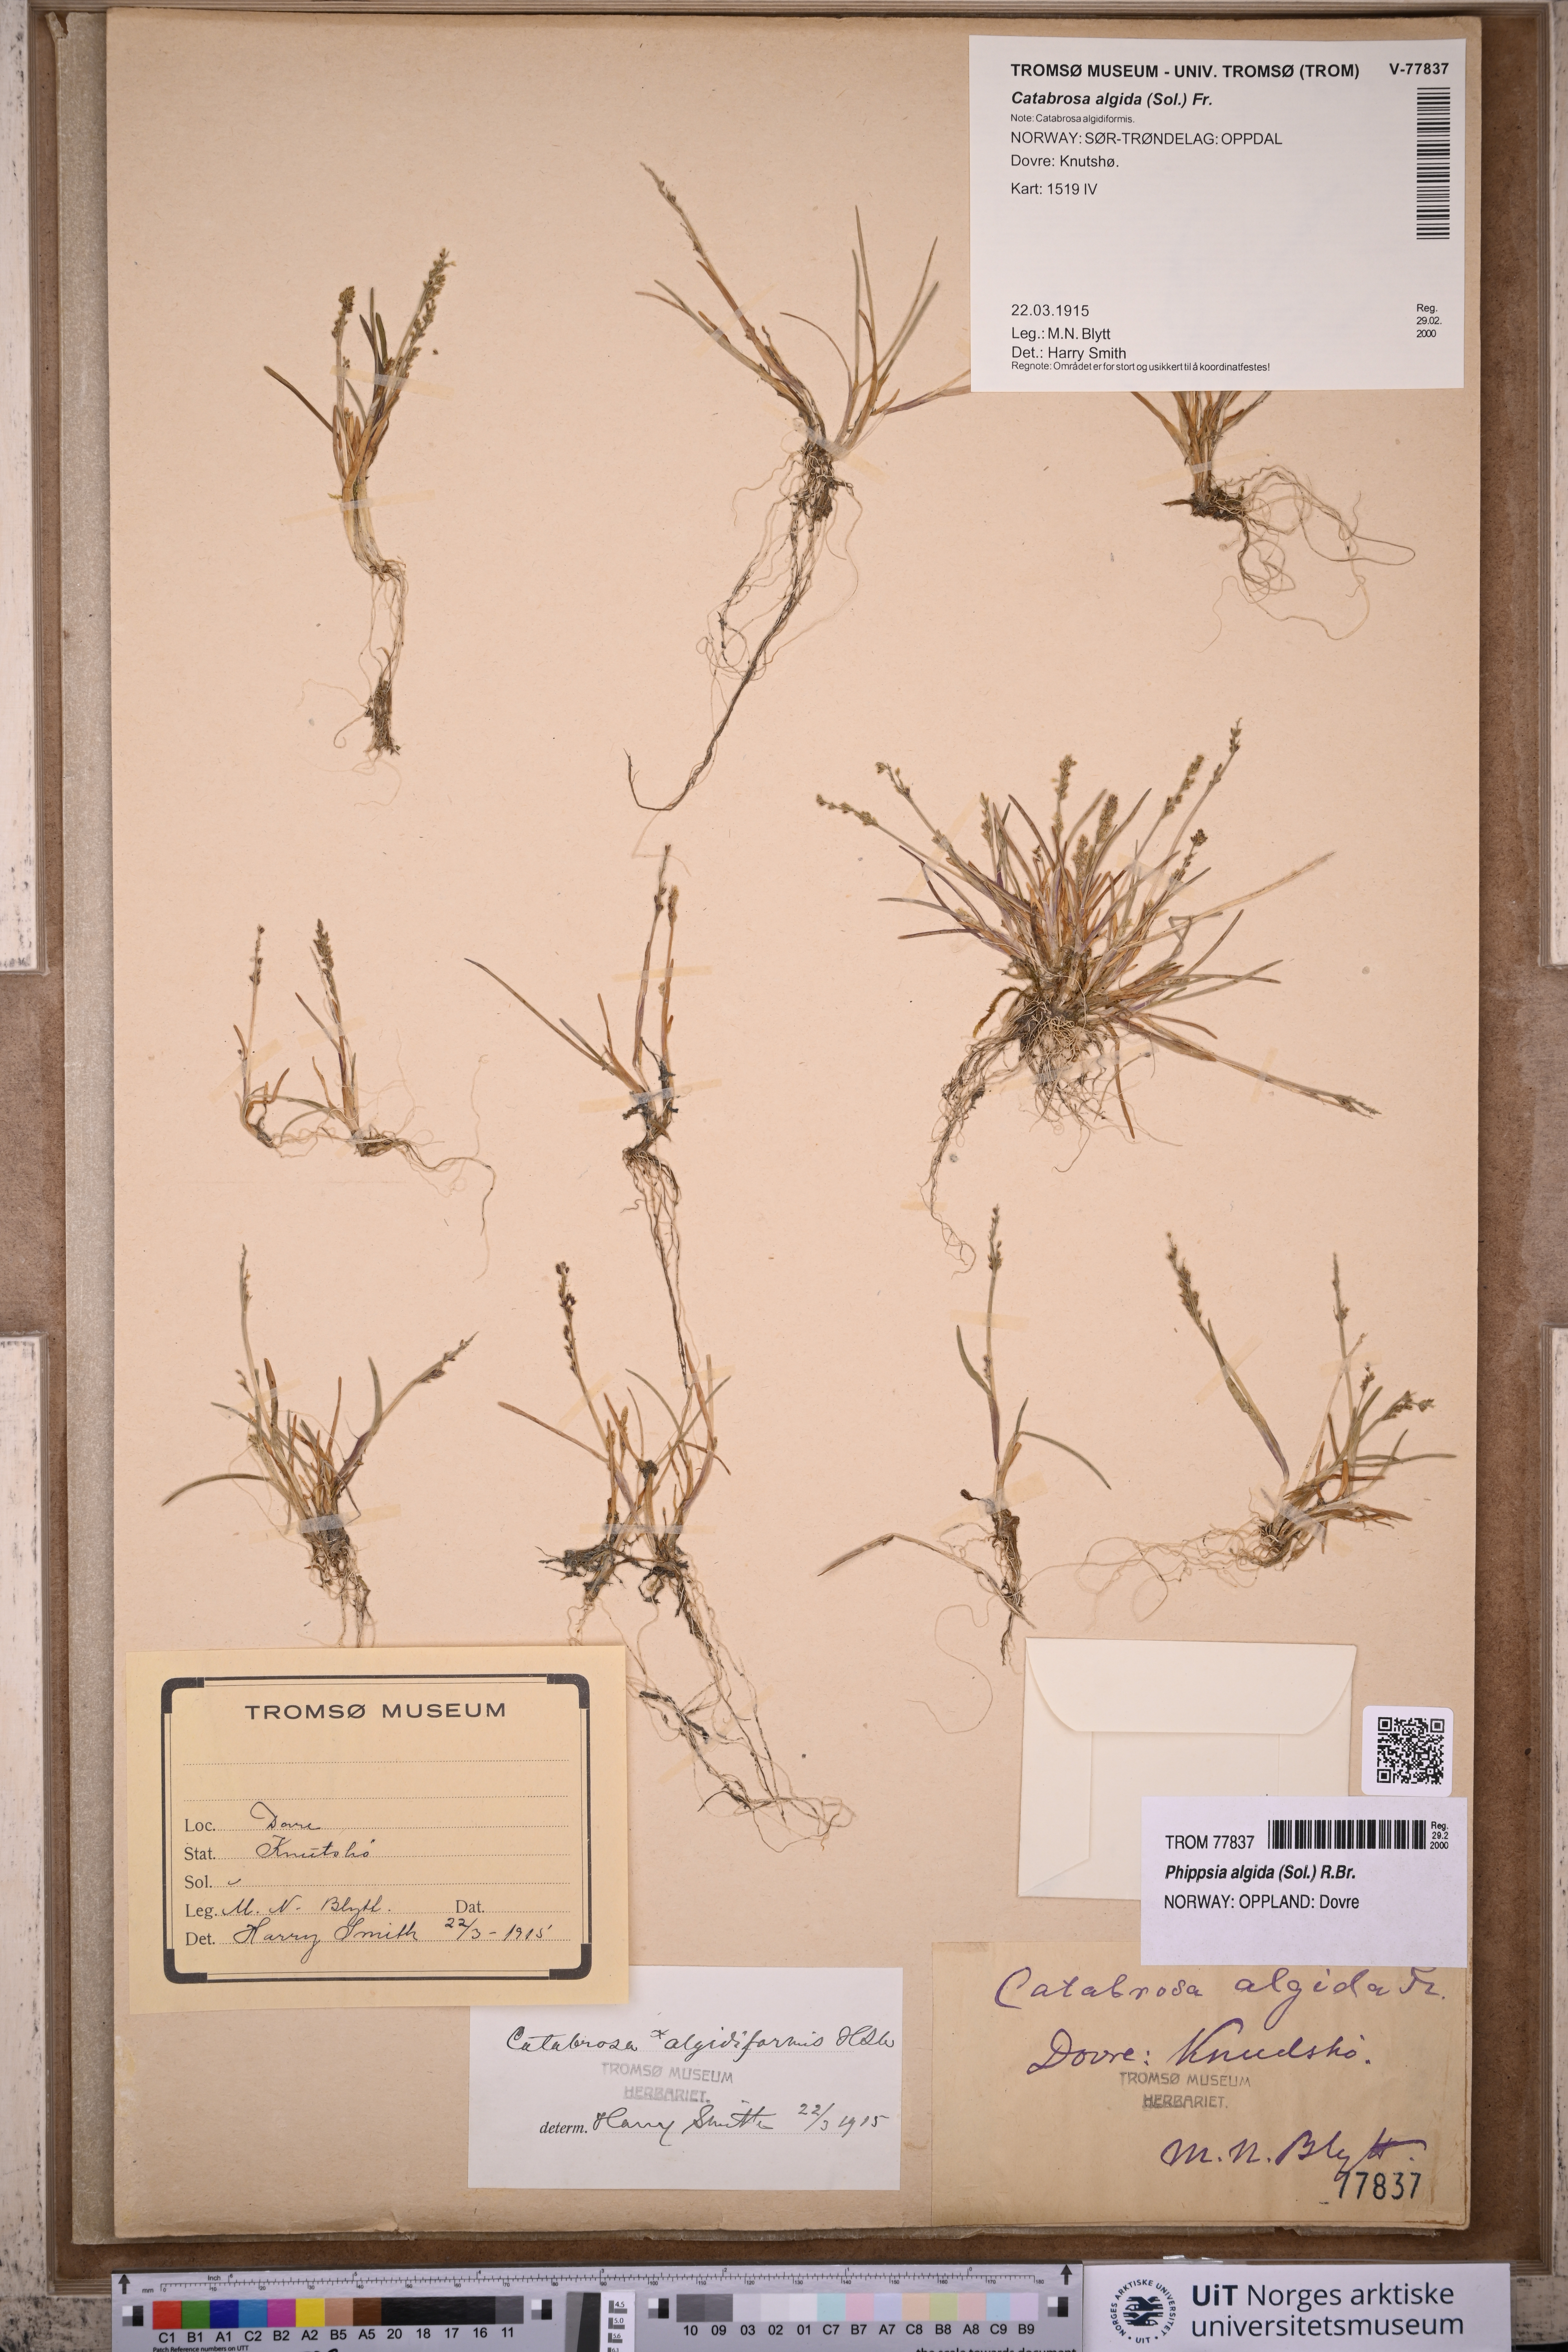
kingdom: Plantae
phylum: Tracheophyta
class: Liliopsida
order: Poales
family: Poaceae
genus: Phippsia
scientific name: Phippsia algida
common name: Ice grass
